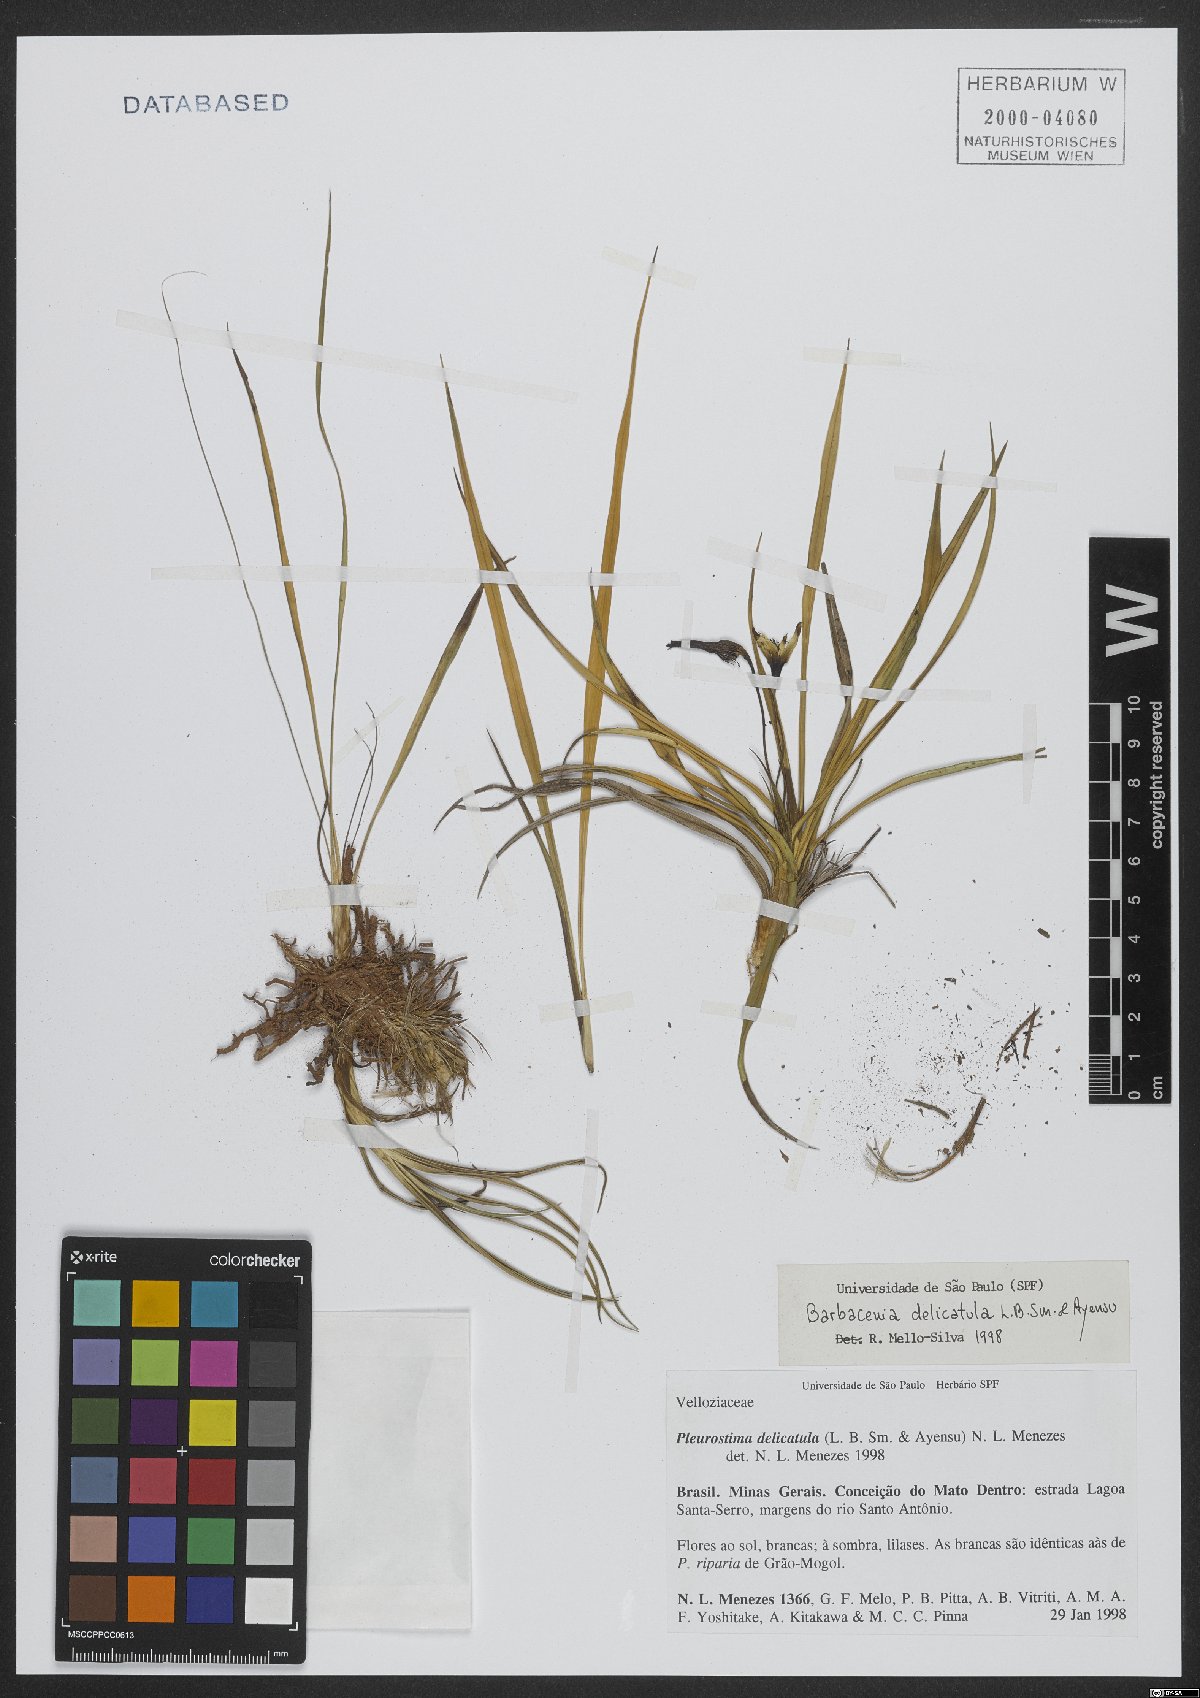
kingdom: Plantae
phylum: Tracheophyta
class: Liliopsida
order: Pandanales
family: Velloziaceae
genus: Barbacenia
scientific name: Barbacenia delicatula
